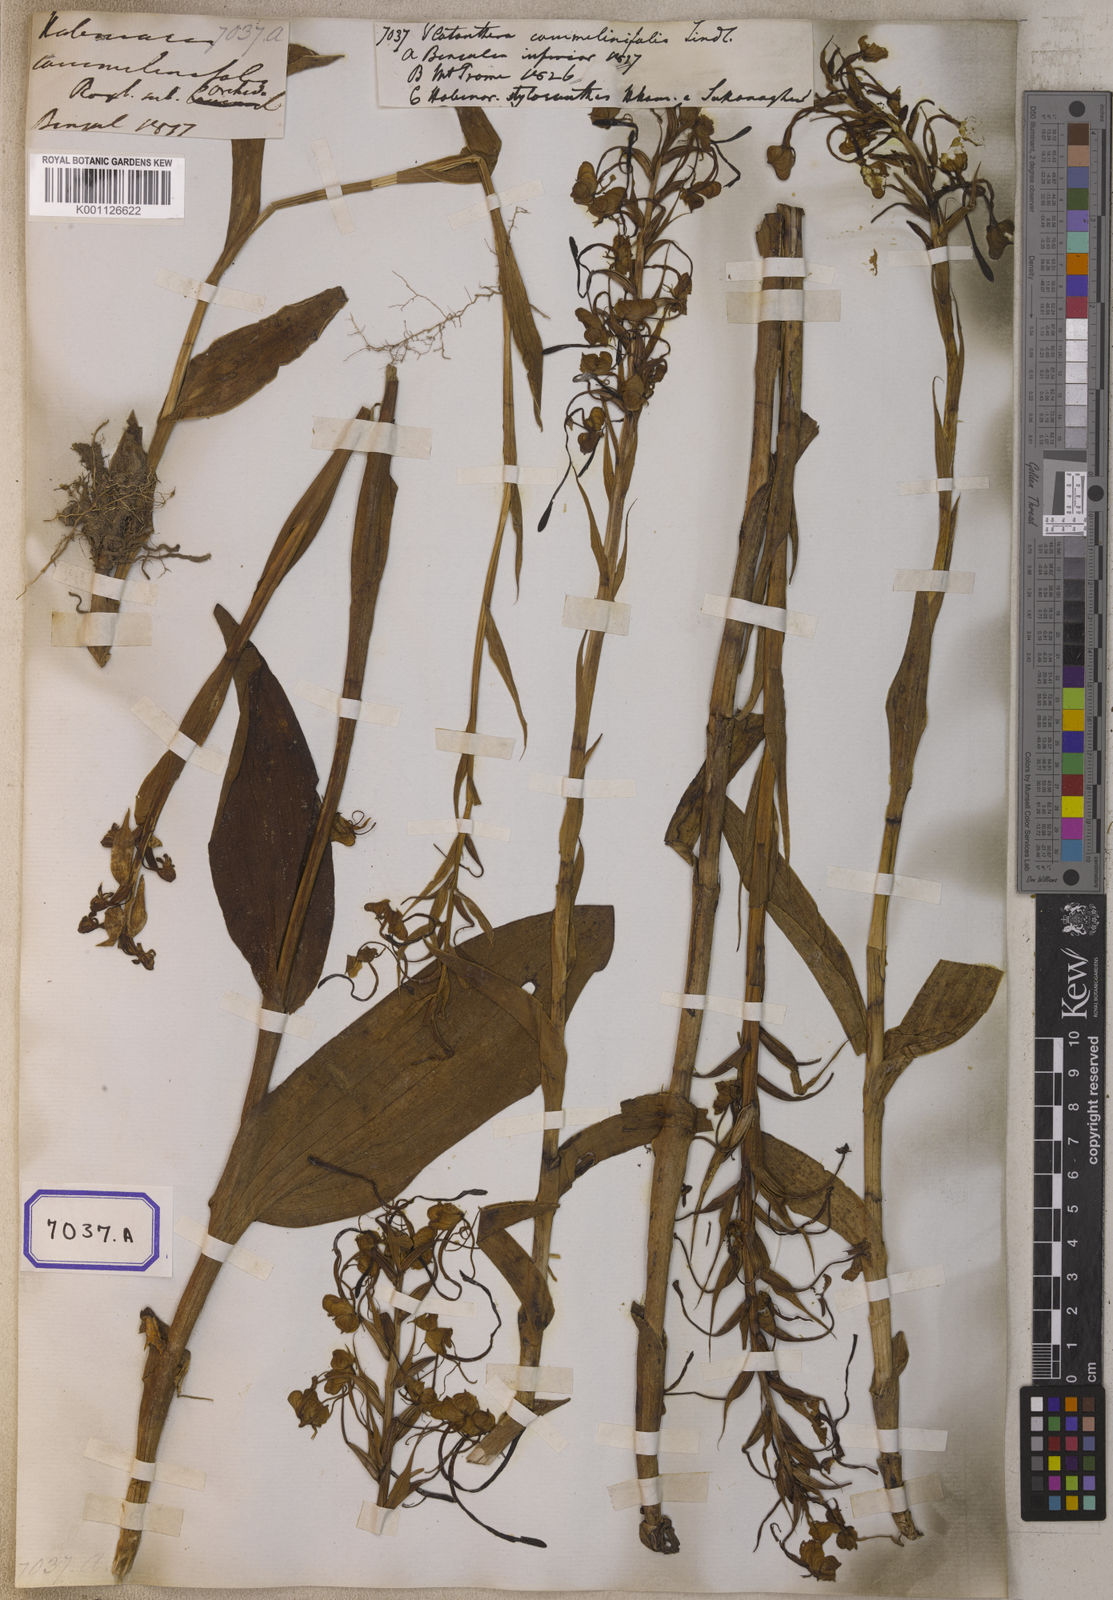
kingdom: Plantae
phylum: Tracheophyta
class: Liliopsida
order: Asparagales
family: Orchidaceae
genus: Platanthera
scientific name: Platanthera
